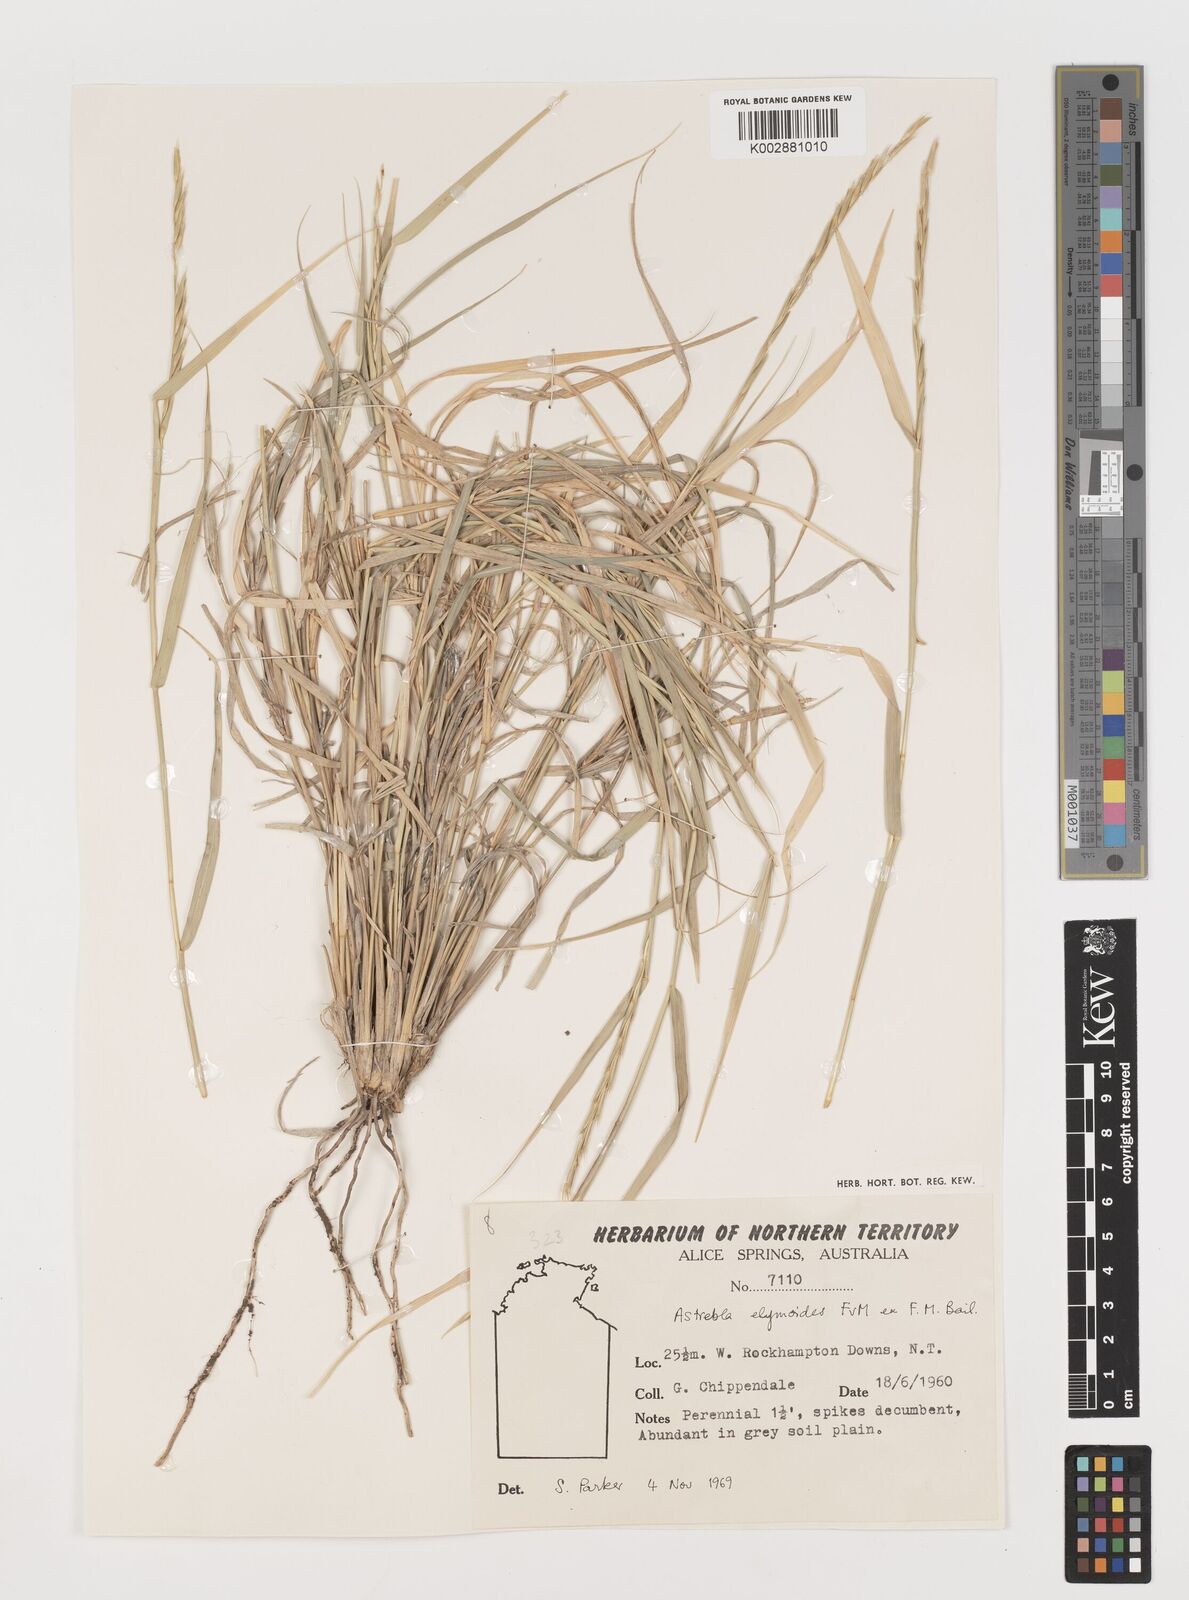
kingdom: Plantae
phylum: Tracheophyta
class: Liliopsida
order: Poales
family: Poaceae
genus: Astrebla
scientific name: Astrebla elymoides
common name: Hoop mitchell grass
